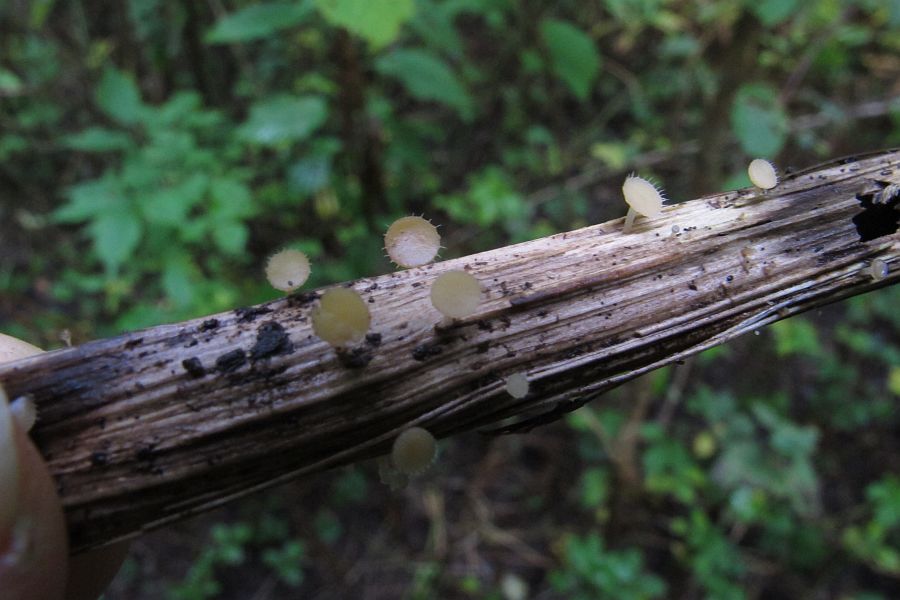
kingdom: Fungi
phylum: Ascomycota
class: Leotiomycetes
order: Helotiales
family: Helotiaceae
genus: Cyathicula
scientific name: Cyathicula coronata
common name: krone-stilkskive
